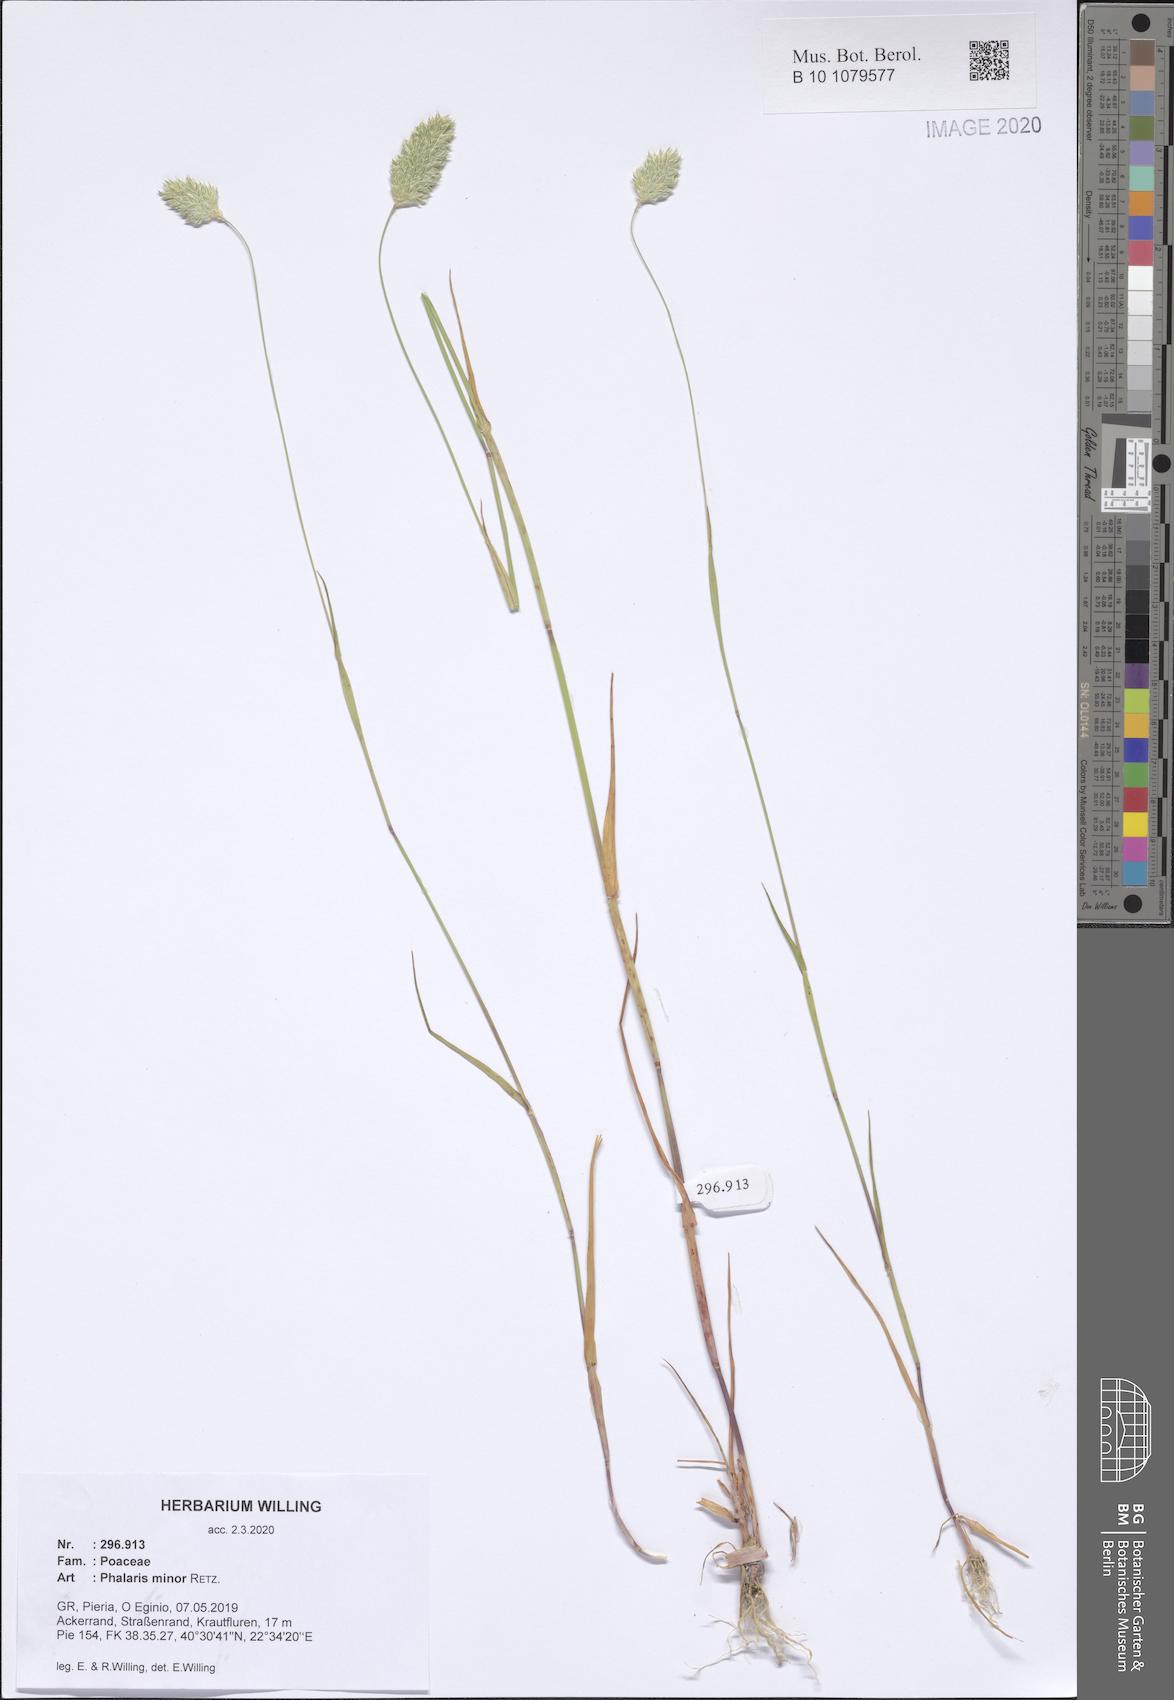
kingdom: Plantae
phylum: Tracheophyta
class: Liliopsida
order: Poales
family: Poaceae
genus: Phalaris
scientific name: Phalaris minor
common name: Littleseed canarygrass
